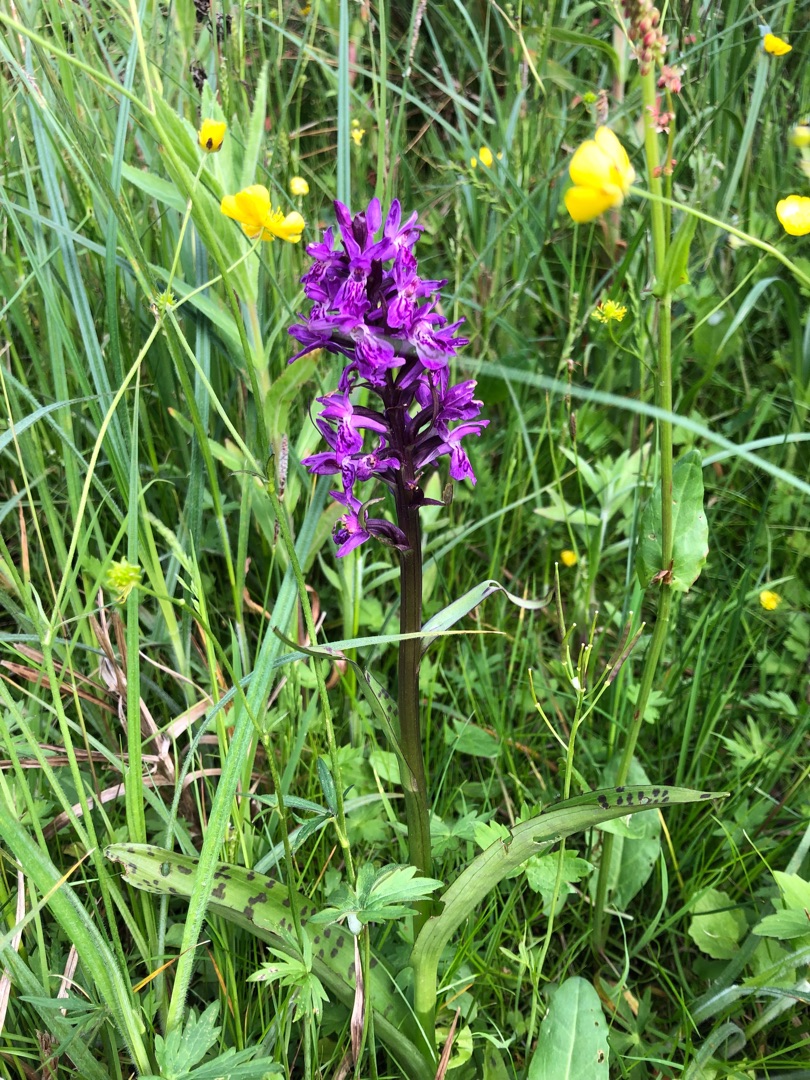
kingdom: Plantae
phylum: Tracheophyta
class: Liliopsida
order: Asparagales
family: Orchidaceae
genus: Dactylorhiza
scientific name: Dactylorhiza majalis
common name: Maj-gøgeurt
